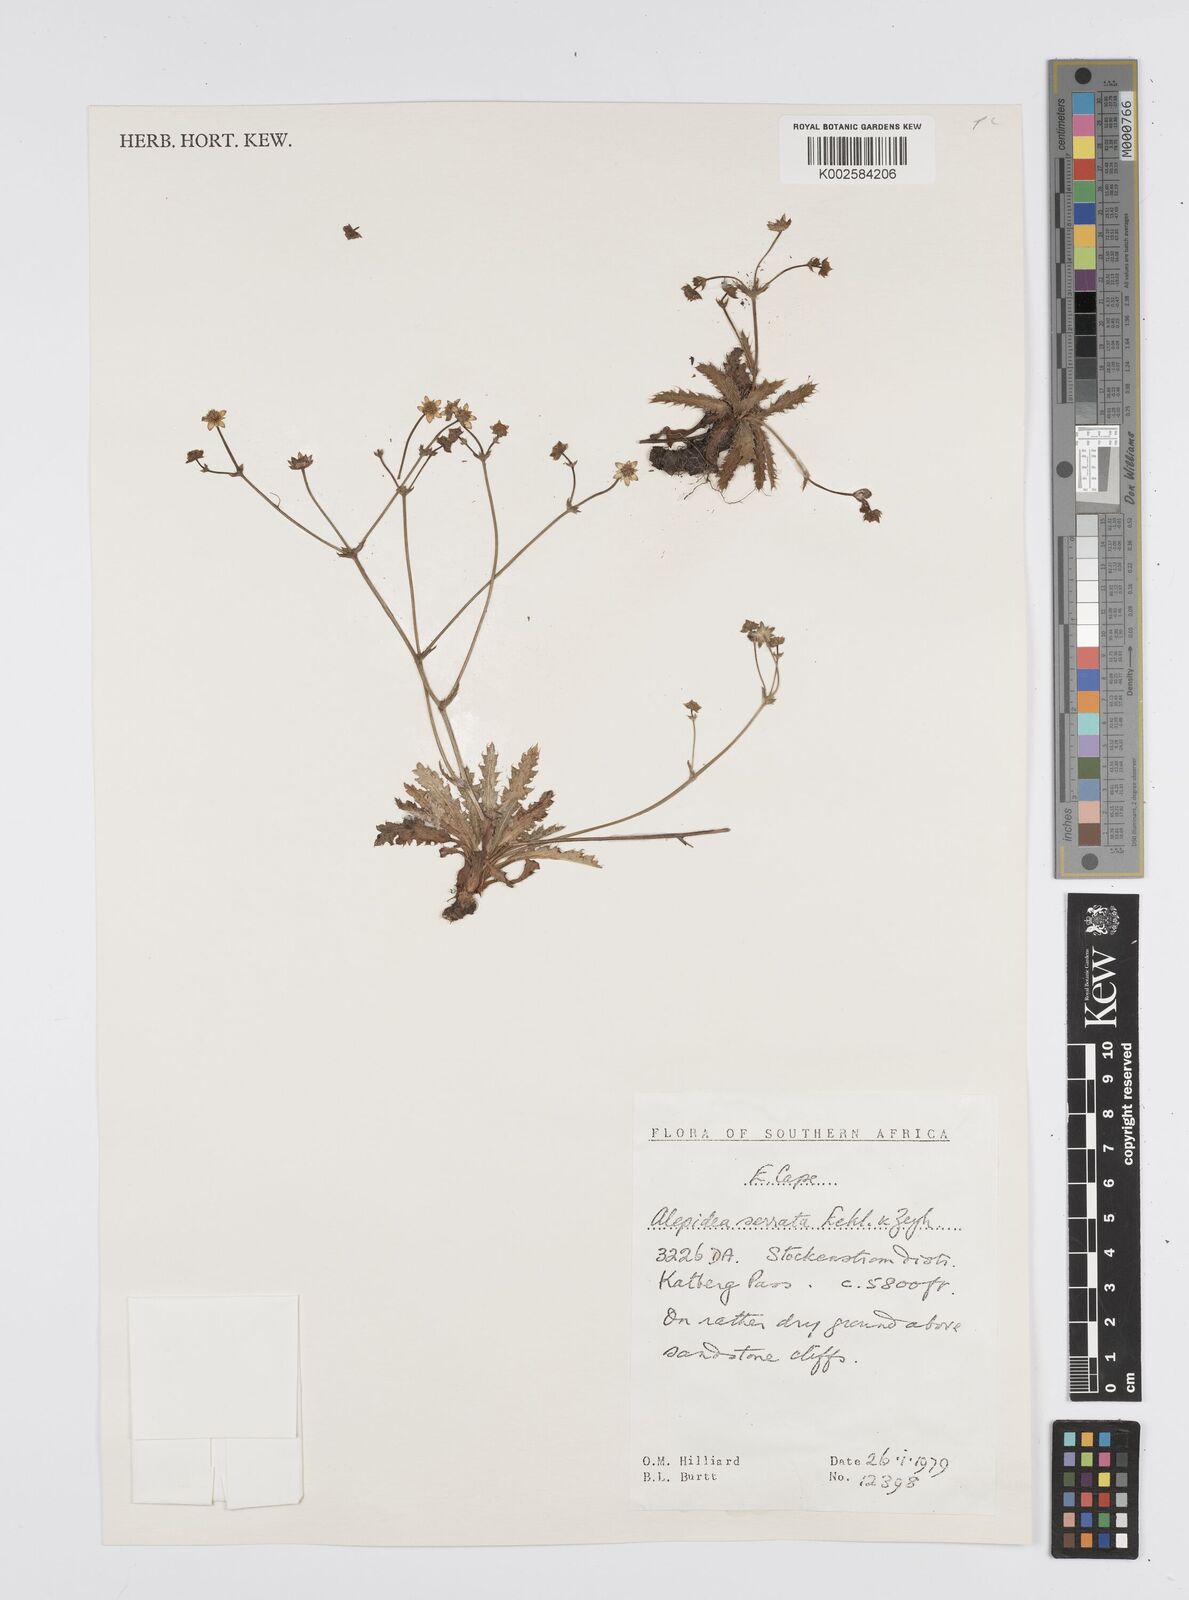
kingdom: Plantae
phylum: Tracheophyta
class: Magnoliopsida
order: Apiales
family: Apiaceae
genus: Alepidea
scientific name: Alepidea serrata
